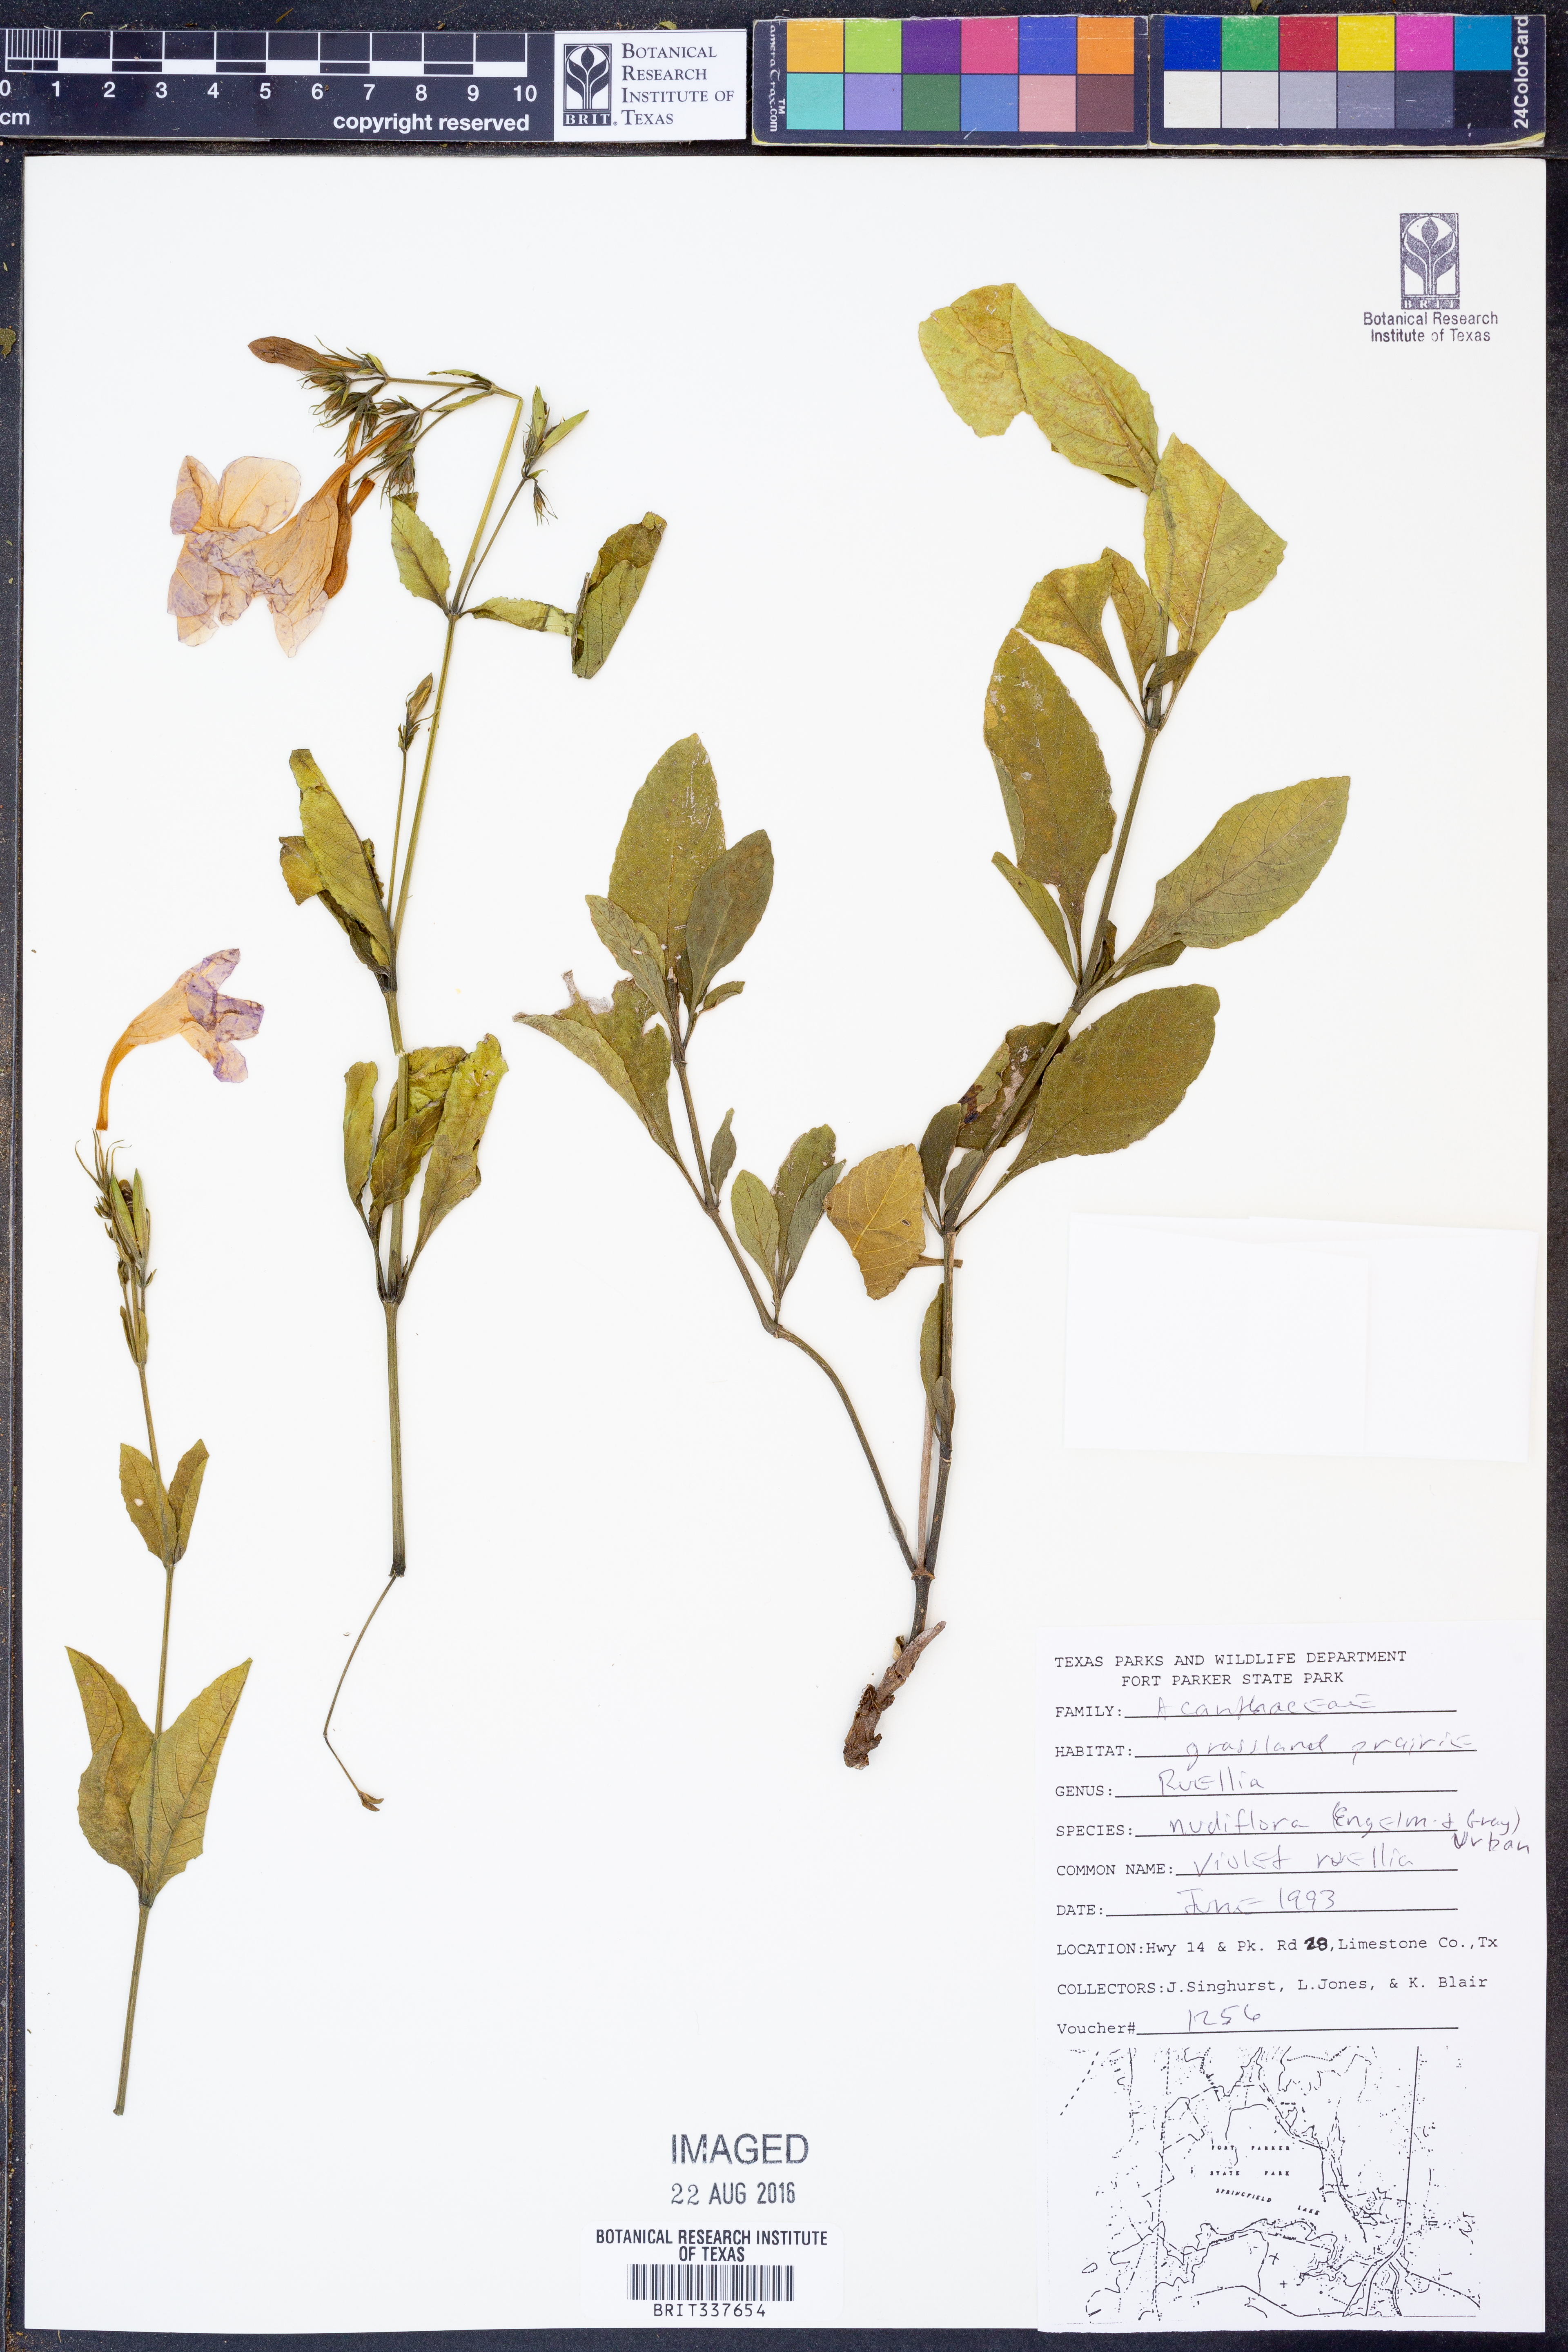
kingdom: Plantae
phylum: Tracheophyta
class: Magnoliopsida
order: Lamiales
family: Acanthaceae
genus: Ruellia
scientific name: Ruellia ciliatiflora
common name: Hairyflower wild petunia
